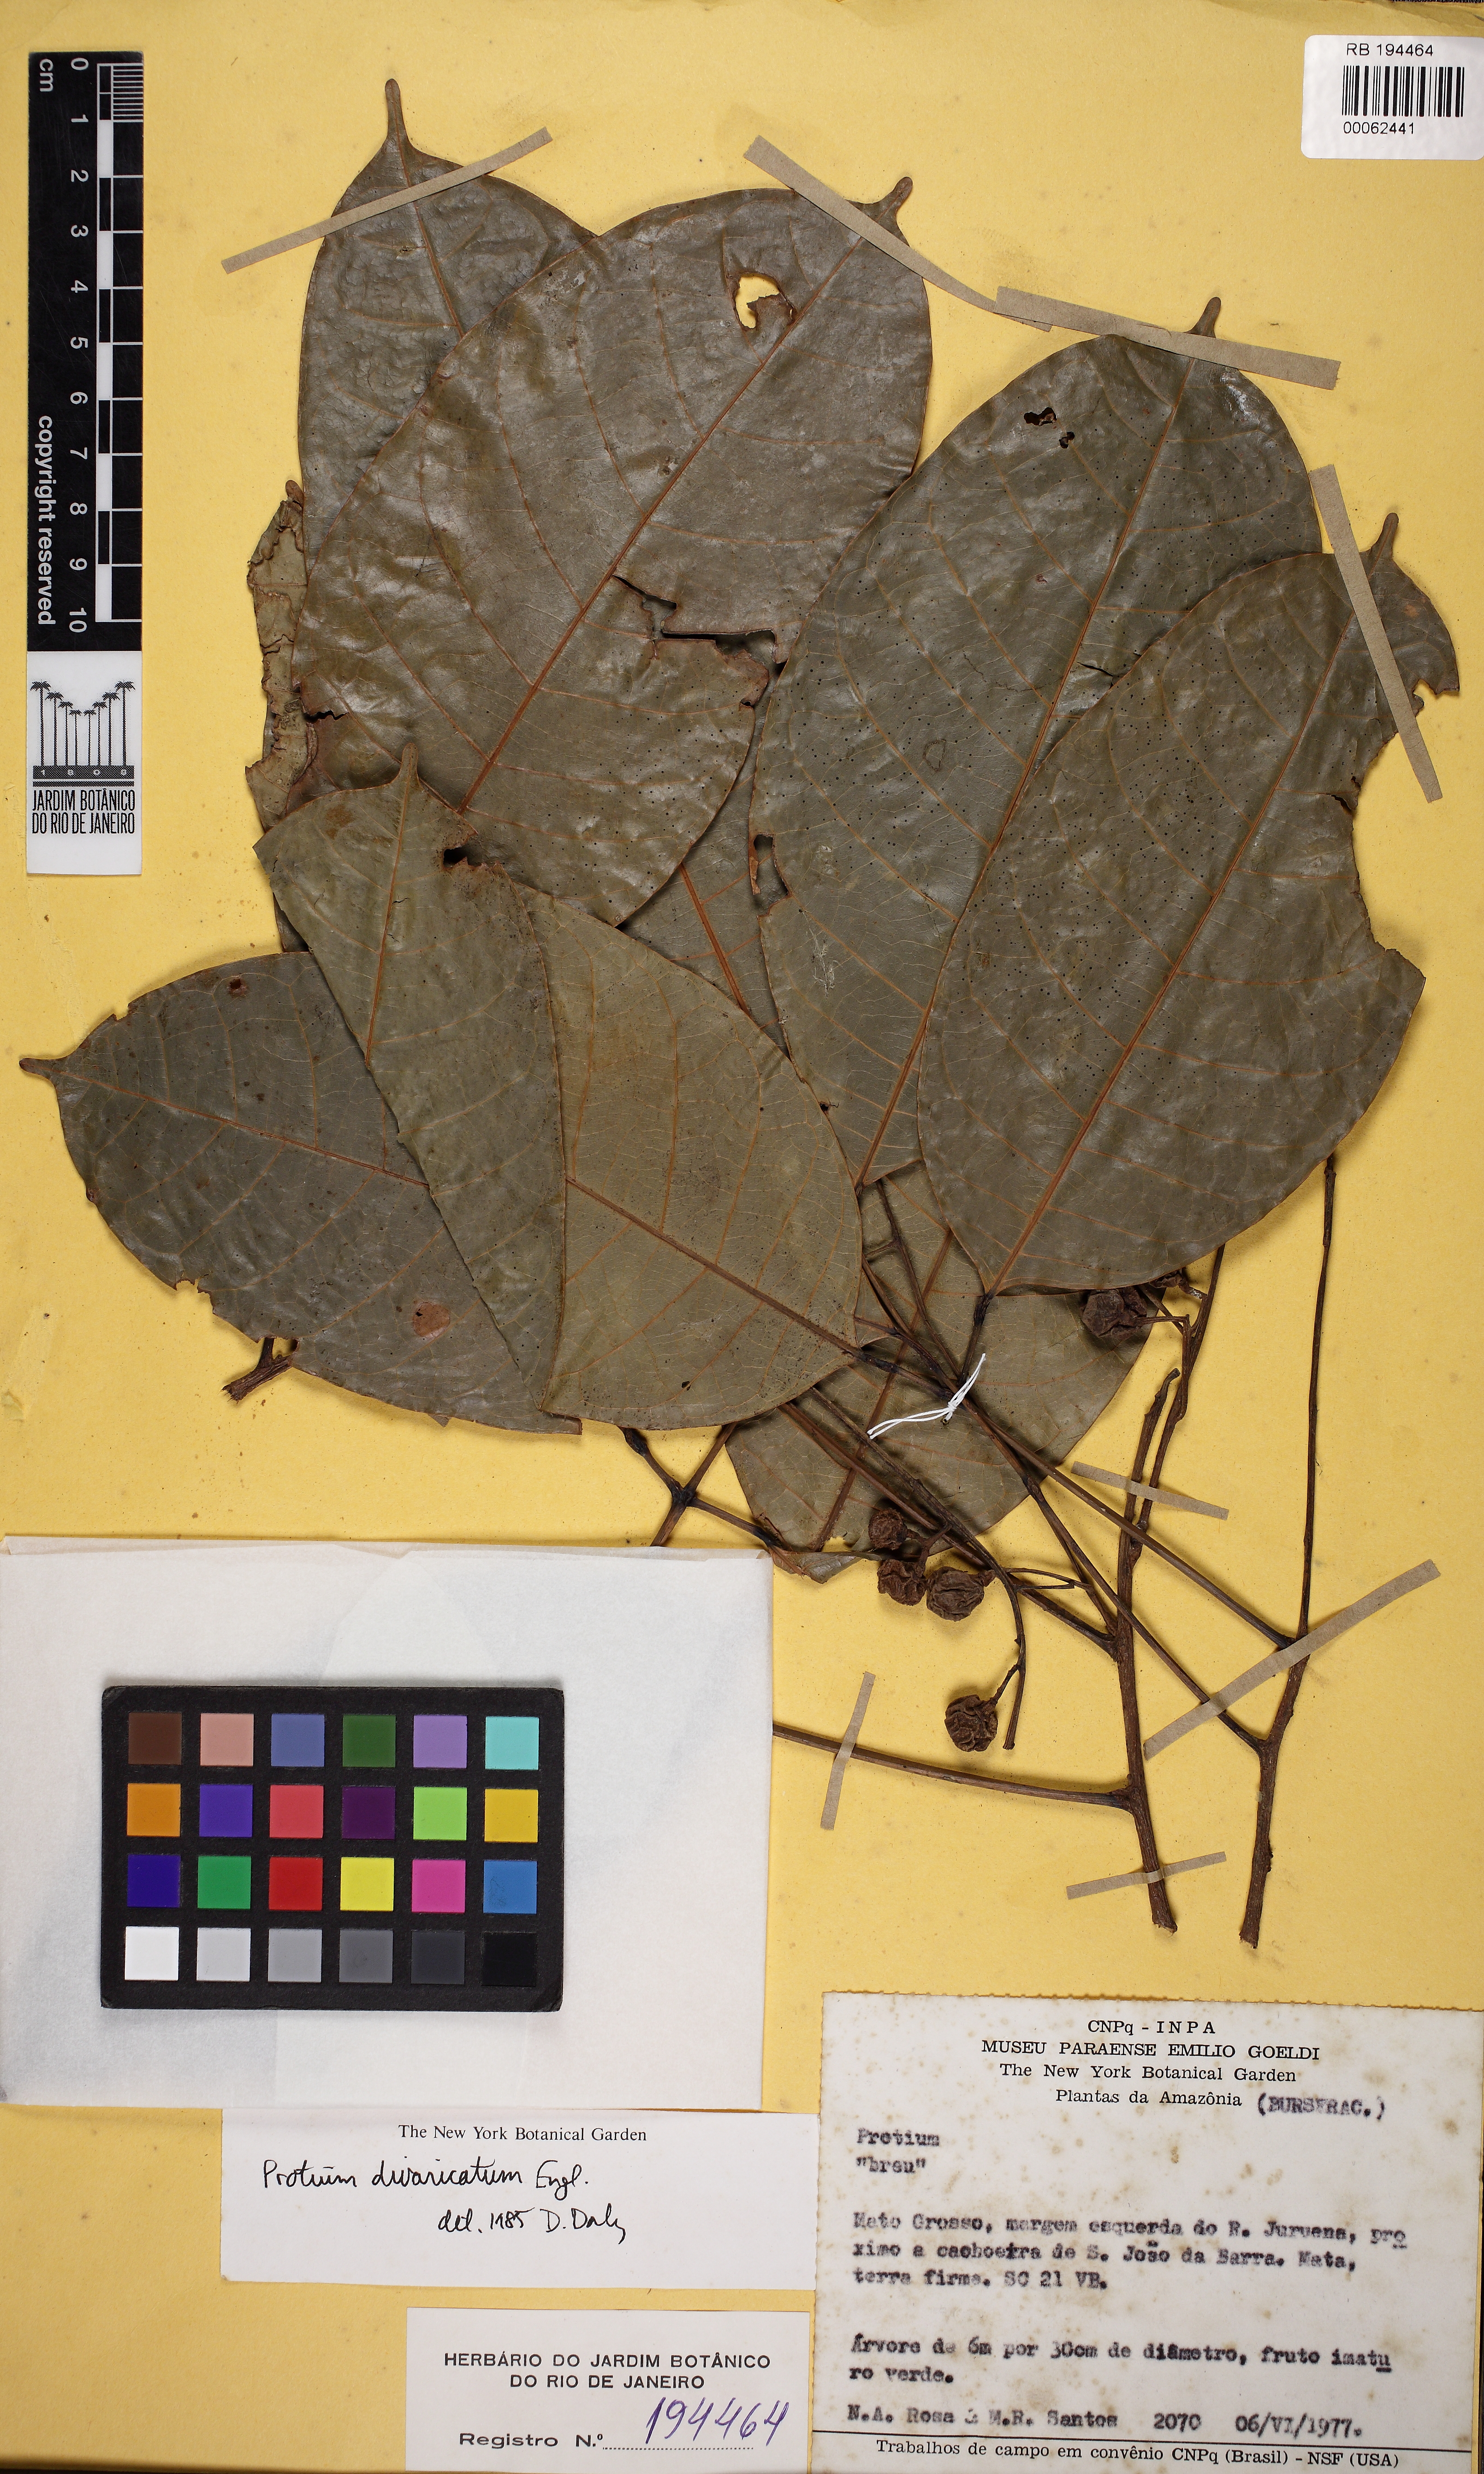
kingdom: Plantae
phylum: Tracheophyta
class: Magnoliopsida
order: Sapindales
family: Burseraceae
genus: Protium
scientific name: Protium divaricatum
